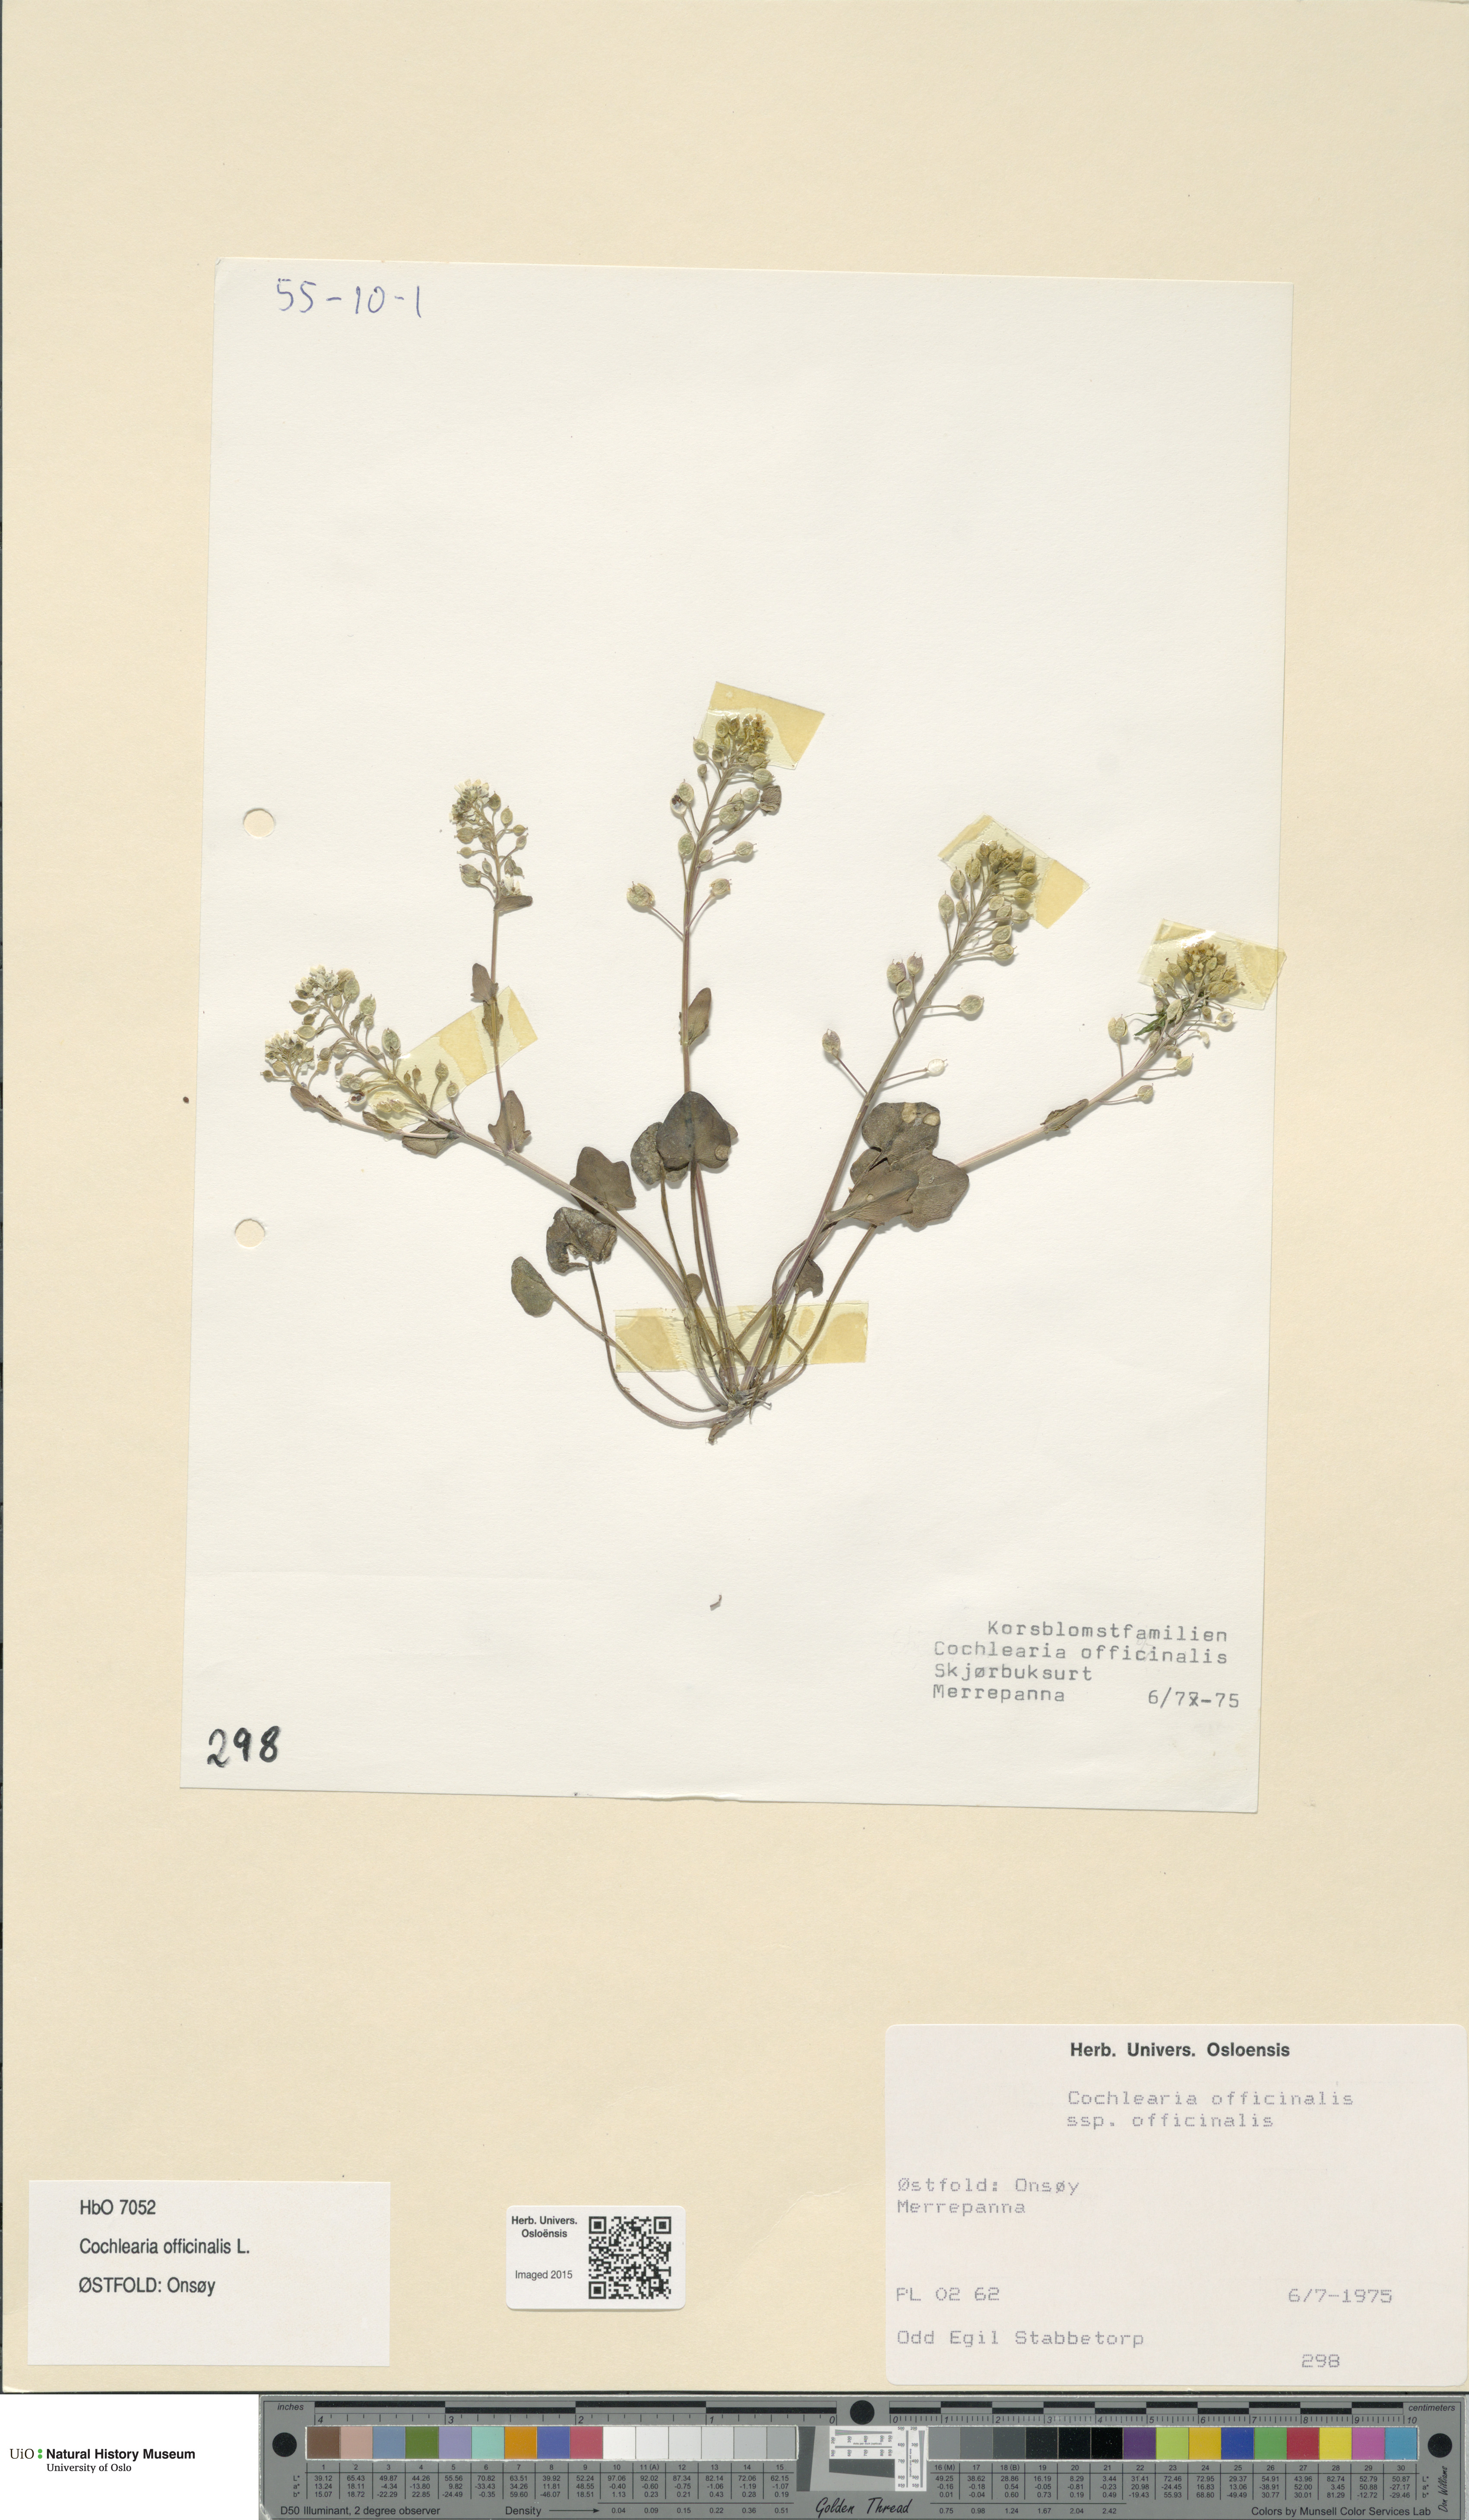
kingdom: Plantae
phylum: Tracheophyta
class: Magnoliopsida
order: Brassicales
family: Brassicaceae
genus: Cochlearia
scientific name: Cochlearia officinalis
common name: Scurvy-grass
